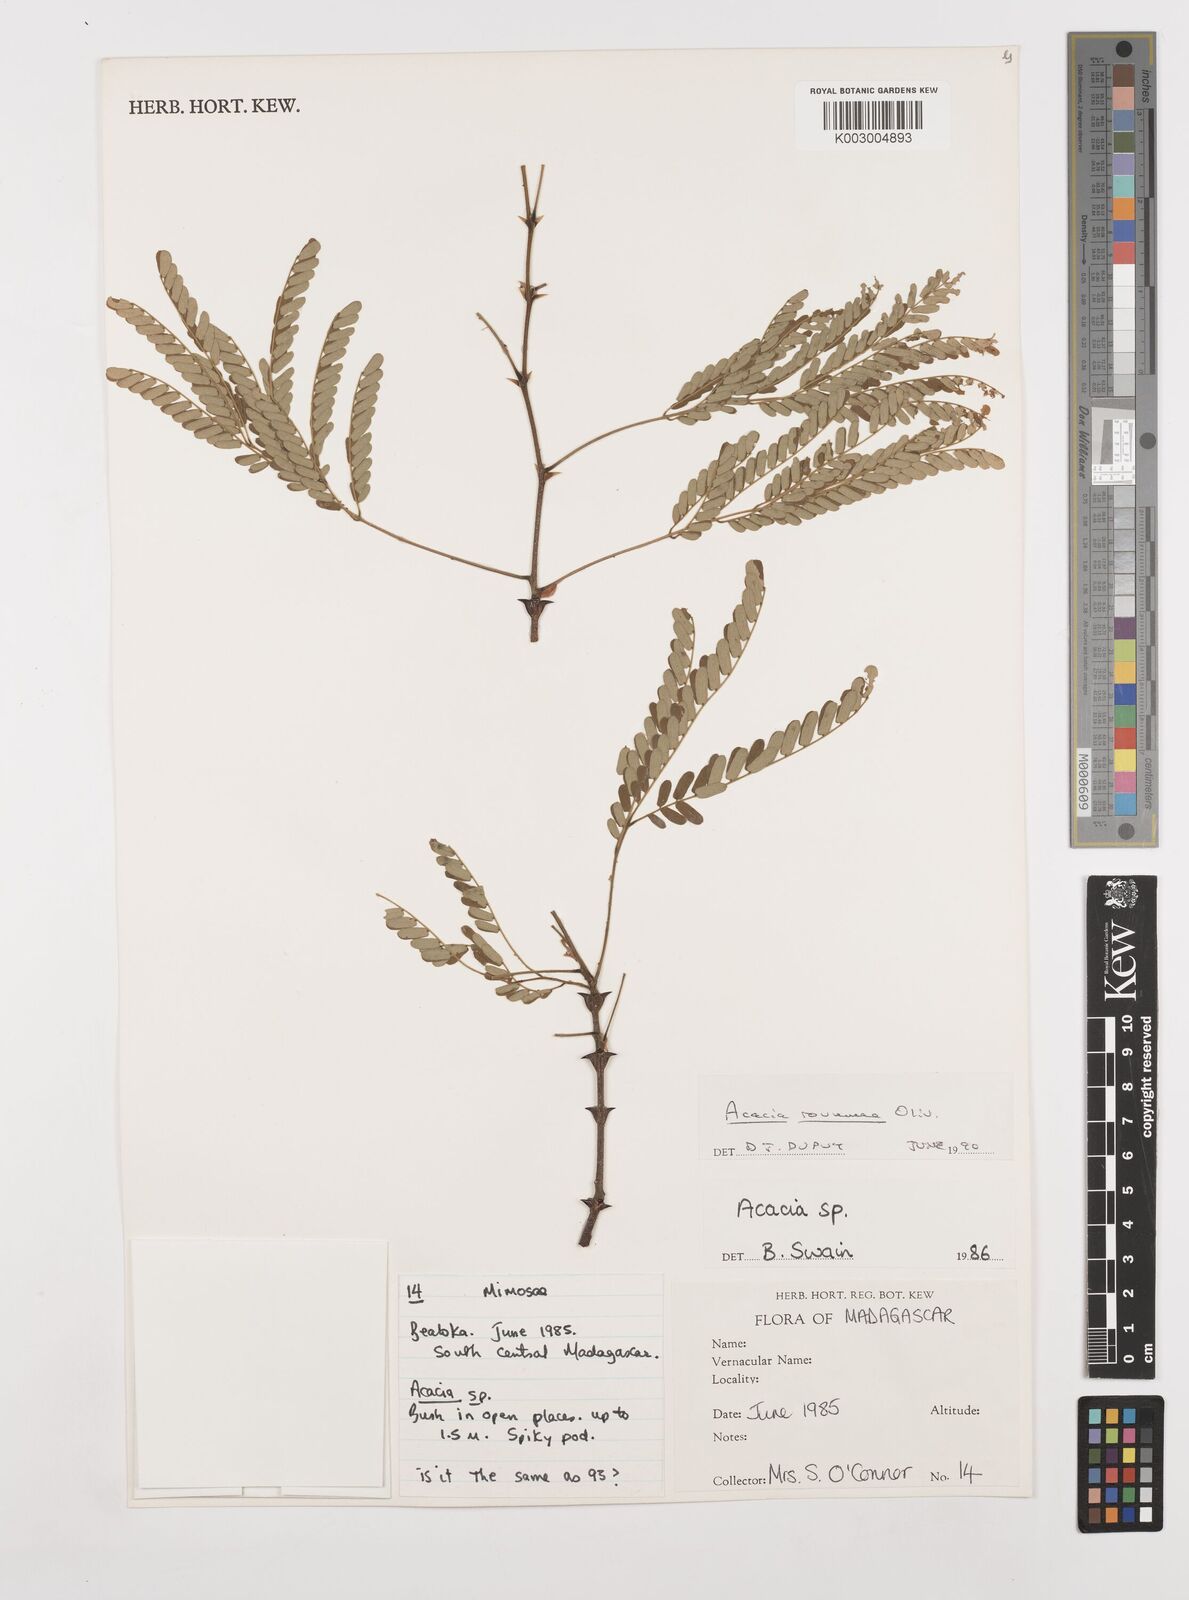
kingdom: Plantae
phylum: Tracheophyta
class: Magnoliopsida
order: Fabales
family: Fabaceae
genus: Senegalia
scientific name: Senegalia rovumae
